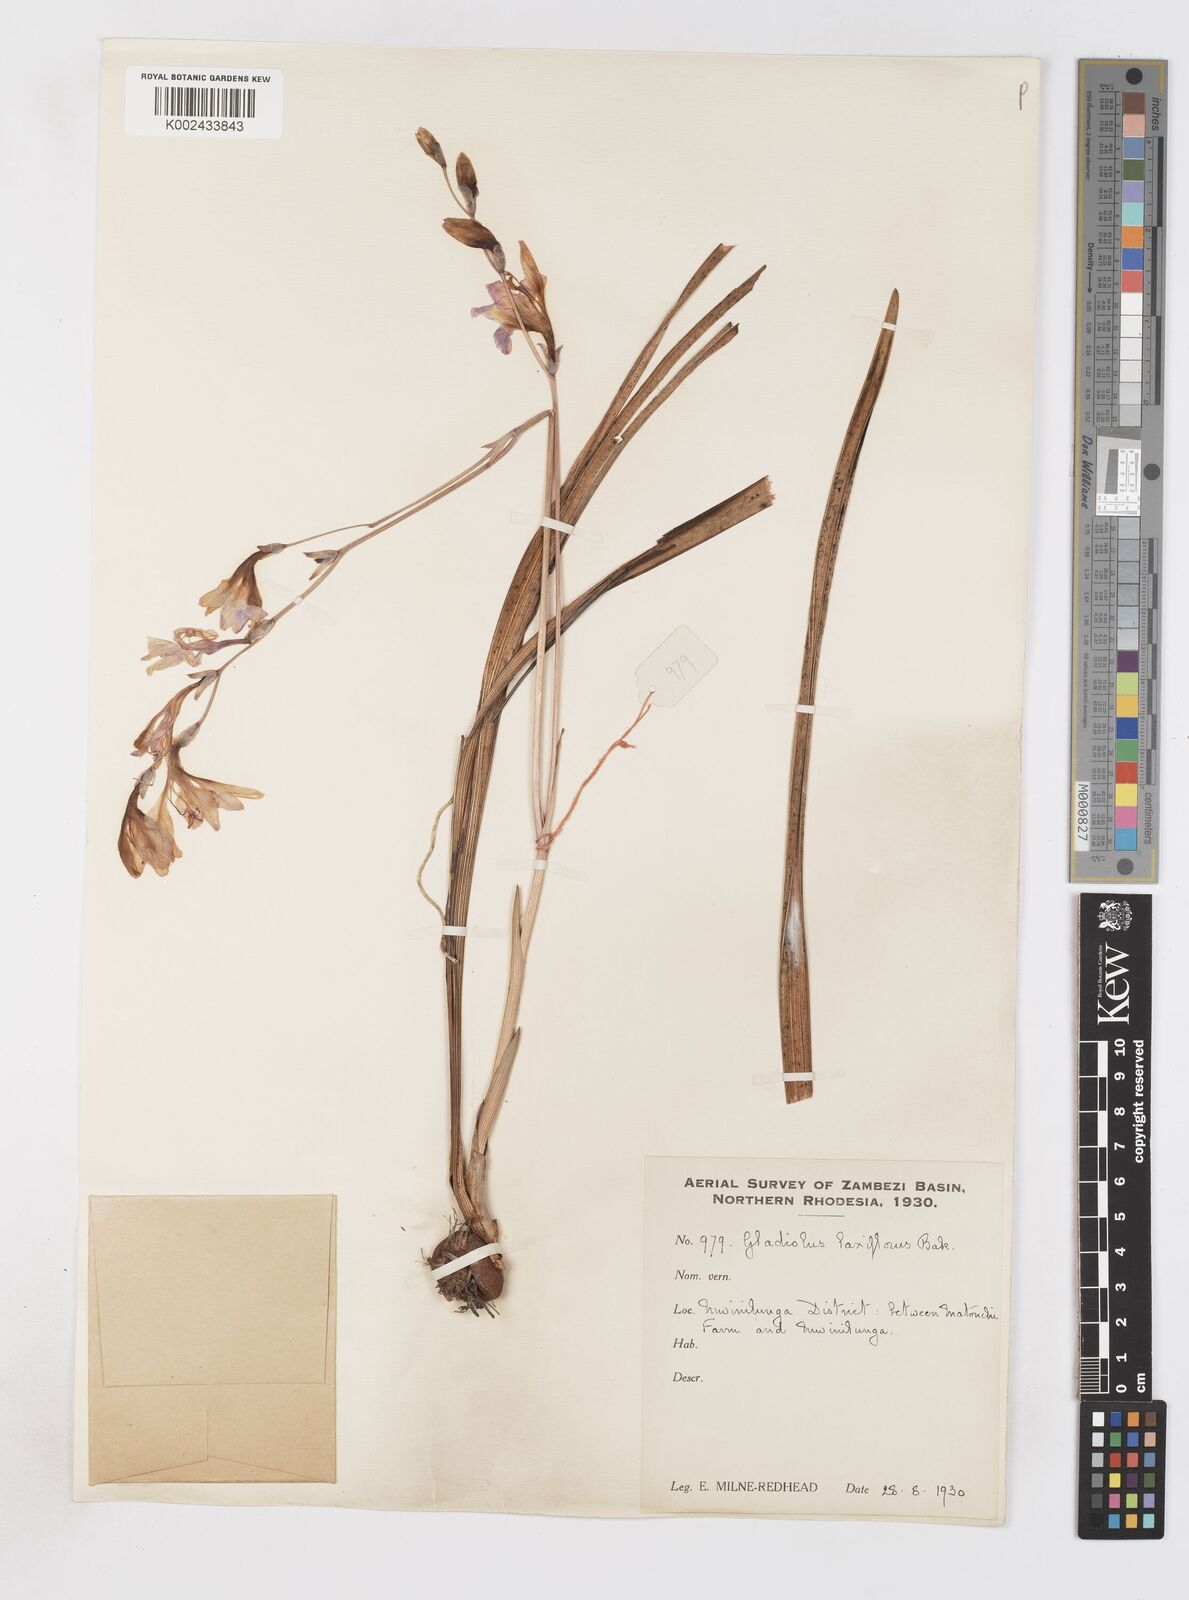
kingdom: Plantae
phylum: Tracheophyta
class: Liliopsida
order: Asparagales
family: Iridaceae
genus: Gladiolus
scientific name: Gladiolus laxiflorus
